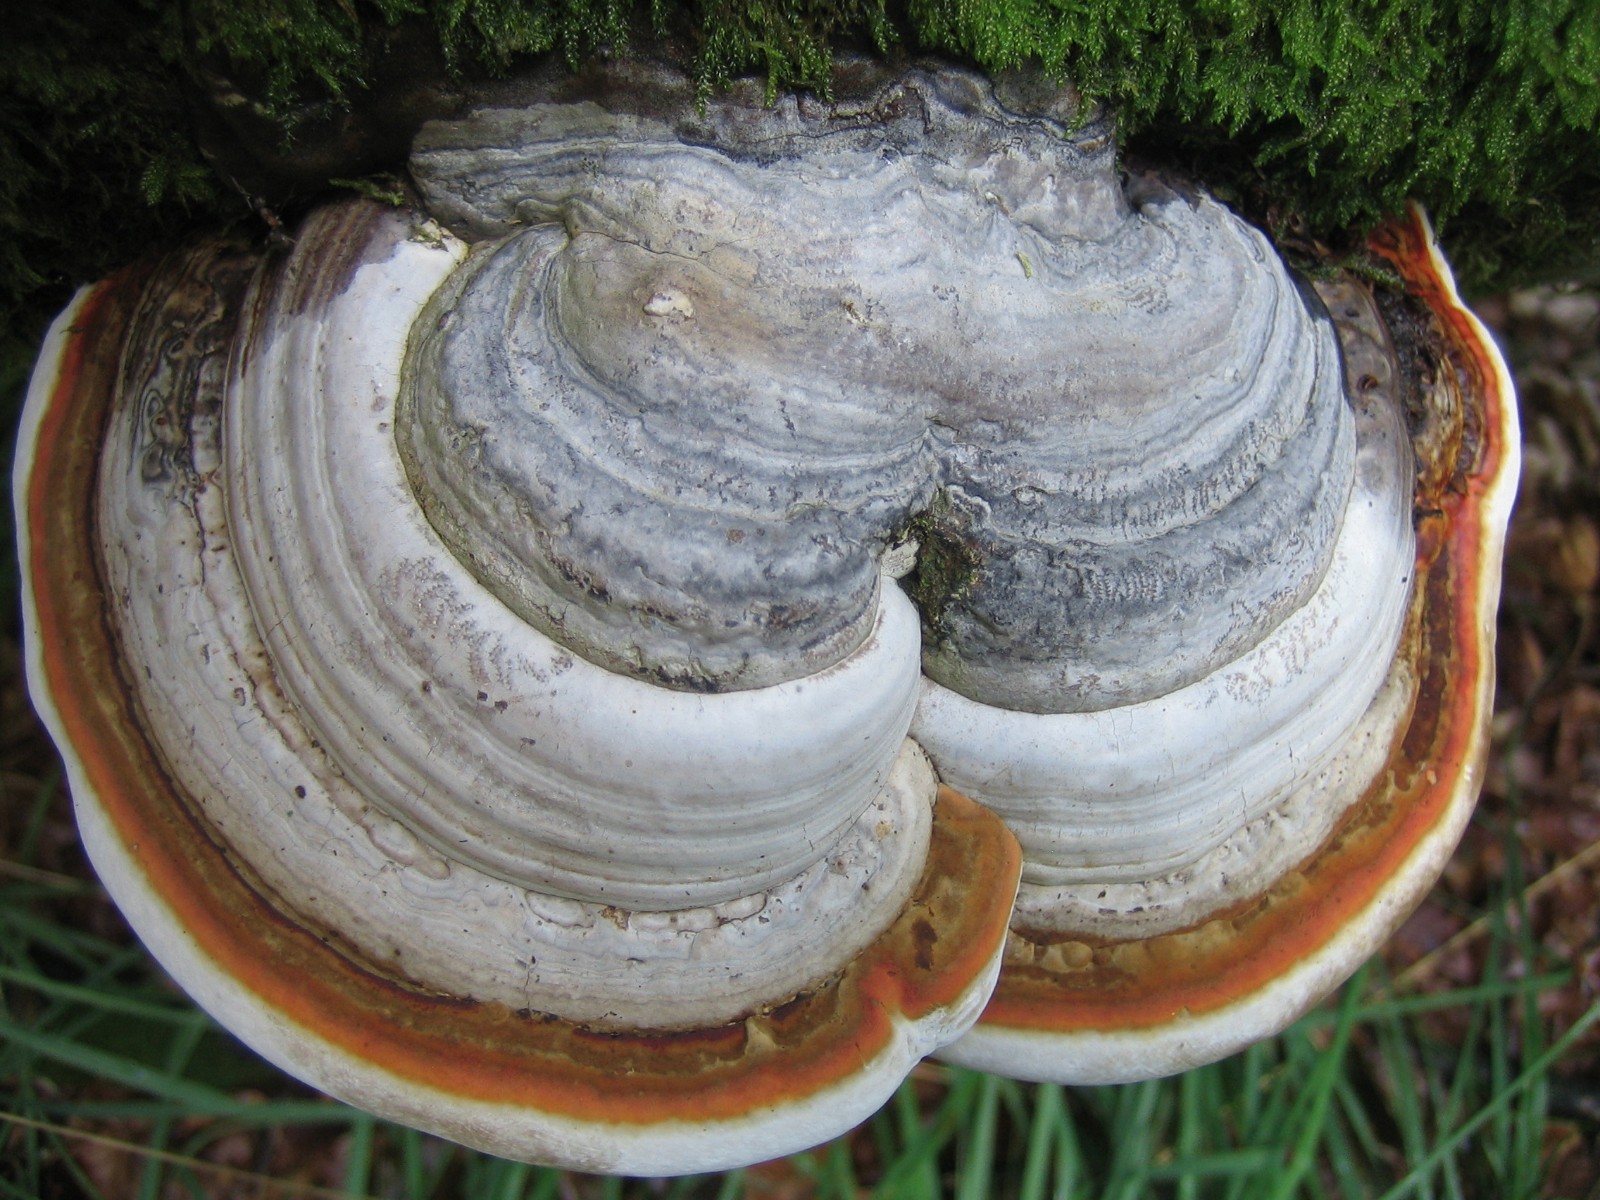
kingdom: Fungi
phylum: Basidiomycota
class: Agaricomycetes
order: Polyporales
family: Polyporaceae
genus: Fomes
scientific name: Fomes
